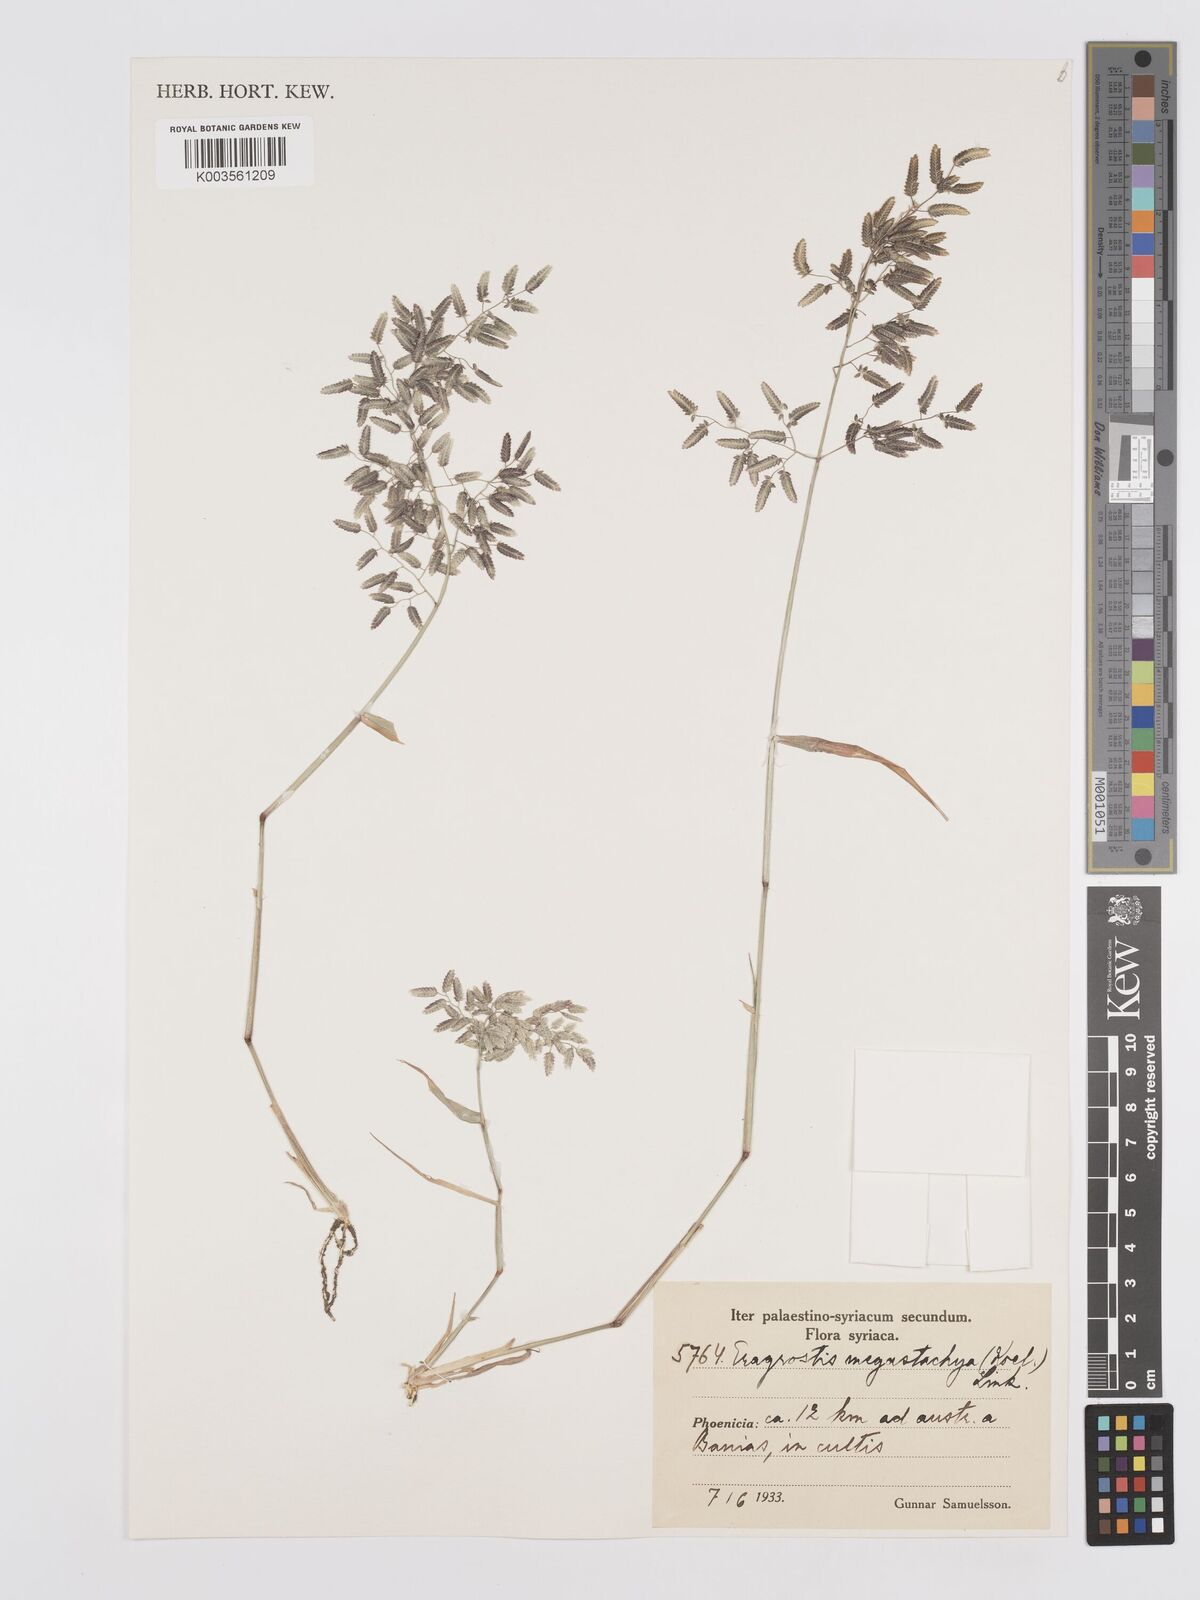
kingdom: Plantae
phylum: Tracheophyta
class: Liliopsida
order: Poales
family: Poaceae
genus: Eragrostis
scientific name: Eragrostis cilianensis
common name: Stinkgrass
